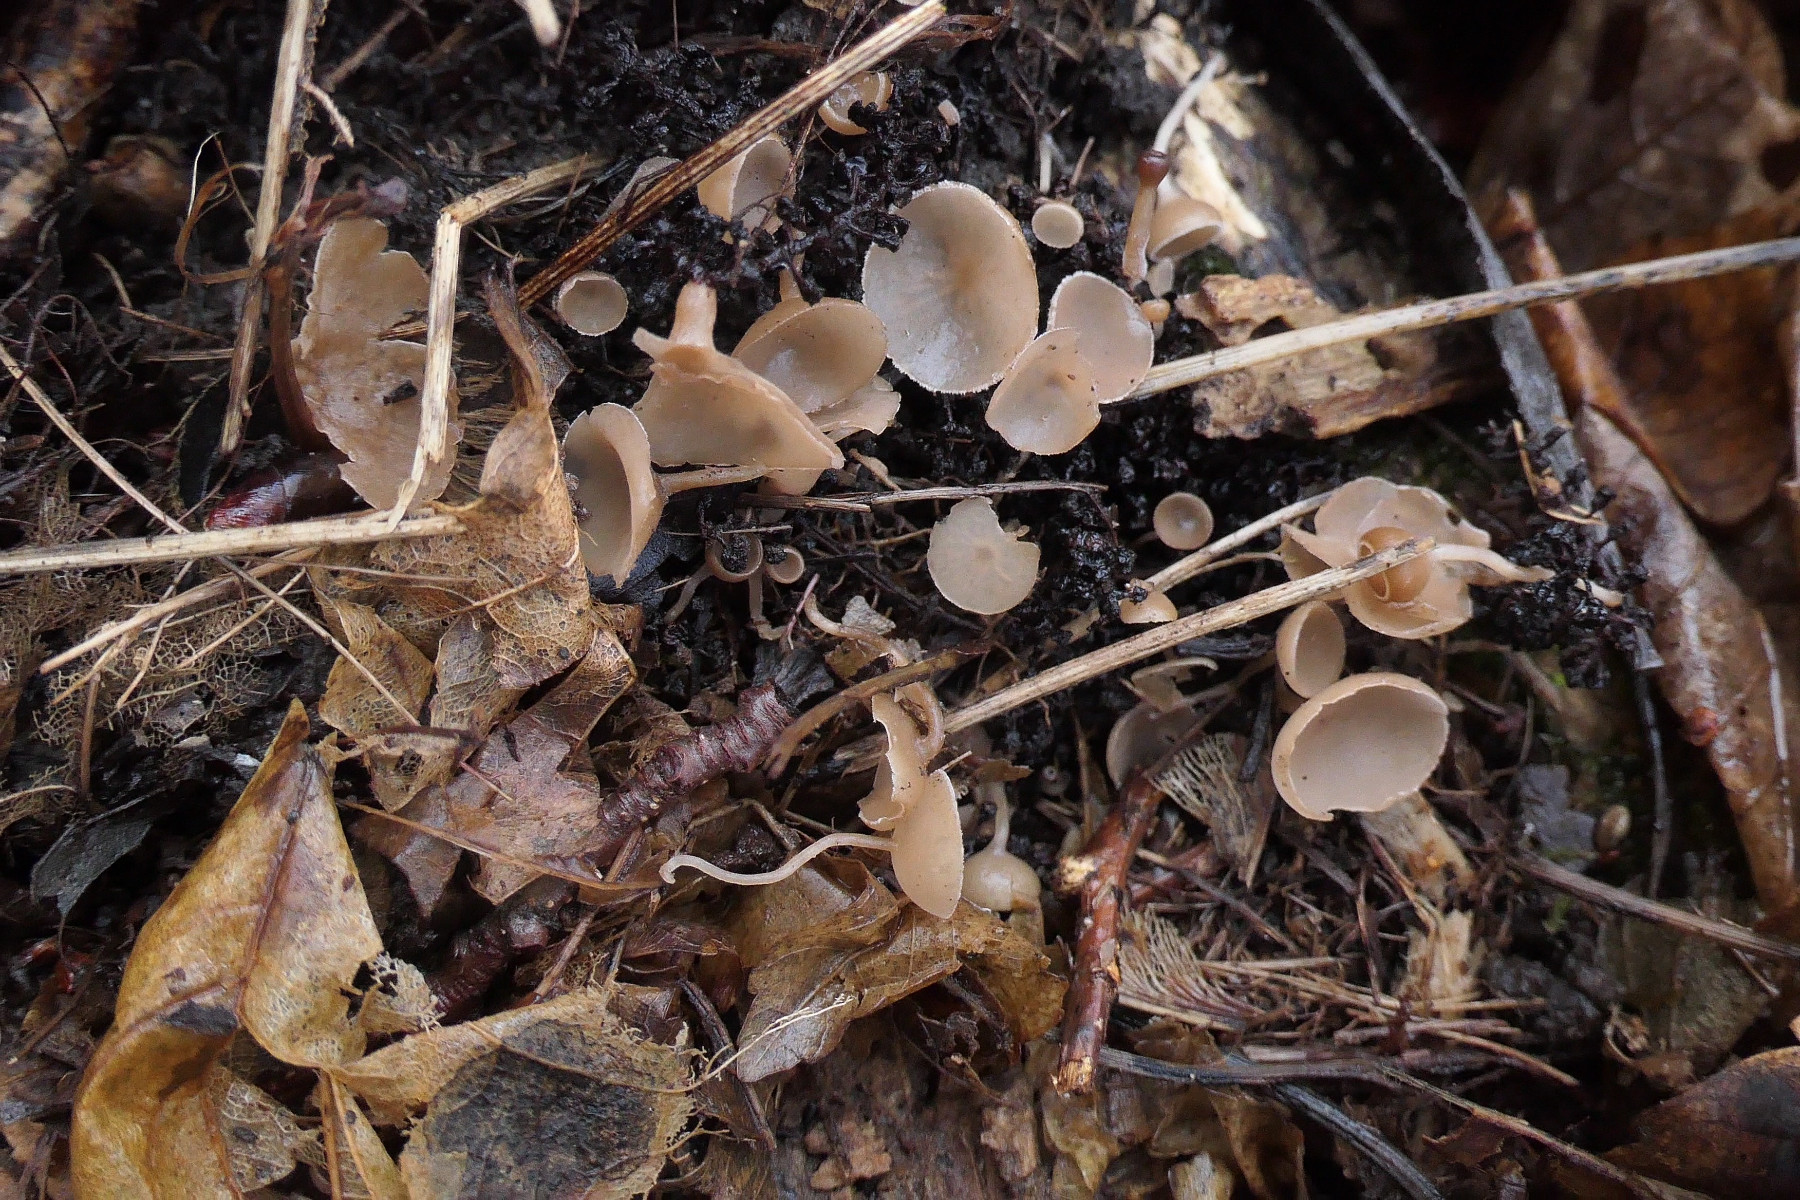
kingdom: Fungi
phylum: Ascomycota
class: Leotiomycetes
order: Helotiales
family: Sclerotiniaceae
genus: Ciboria
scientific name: Ciboria amentacea
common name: ellerakle-knoldskive
